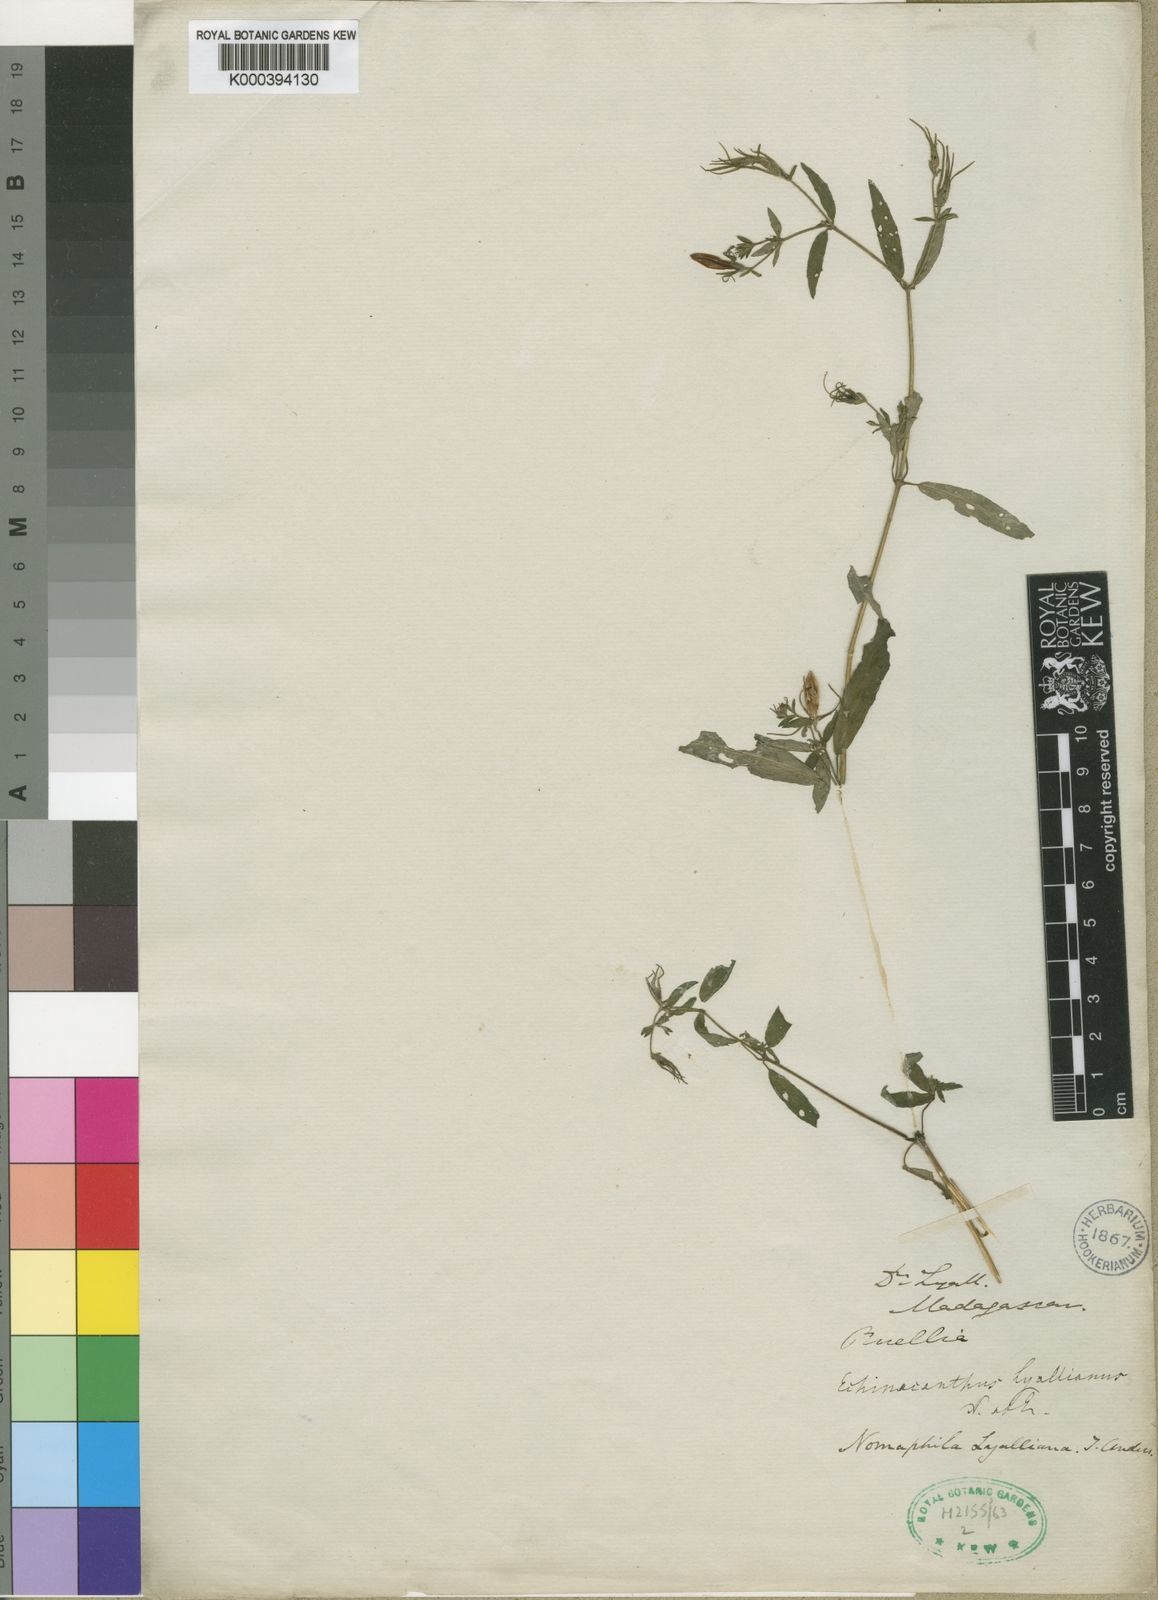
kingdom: Plantae
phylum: Tracheophyta
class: Magnoliopsida
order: Lamiales
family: Acanthaceae
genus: Mimulopsis
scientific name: Mimulopsis
